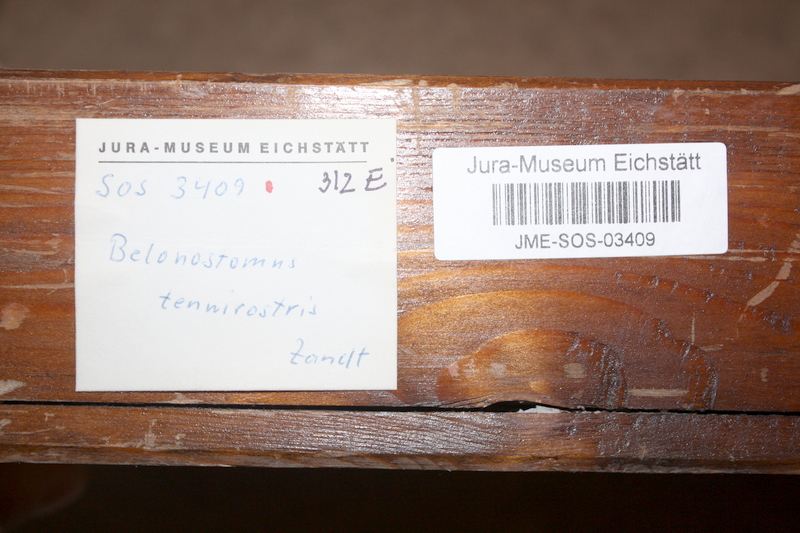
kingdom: Animalia
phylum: Chordata
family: Aspidorhynchidae
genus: Belonostomus
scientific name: Belonostomus tenuirostris
